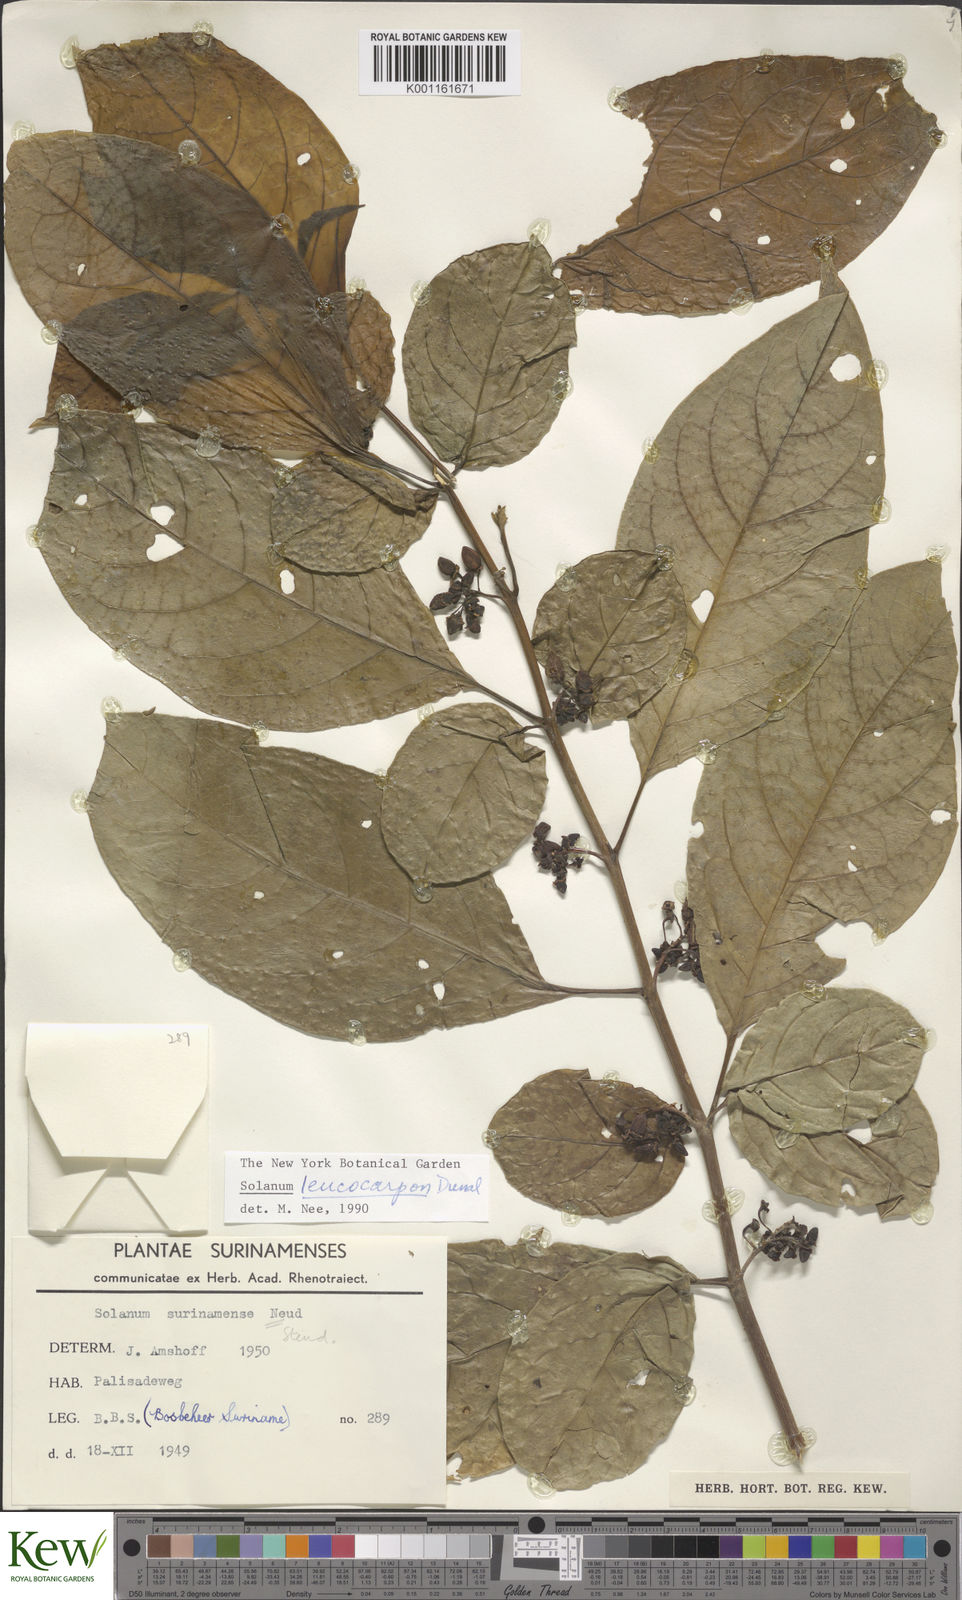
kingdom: Plantae
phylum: Tracheophyta
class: Magnoliopsida
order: Solanales
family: Solanaceae
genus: Solanum
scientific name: Solanum leucocarpon
